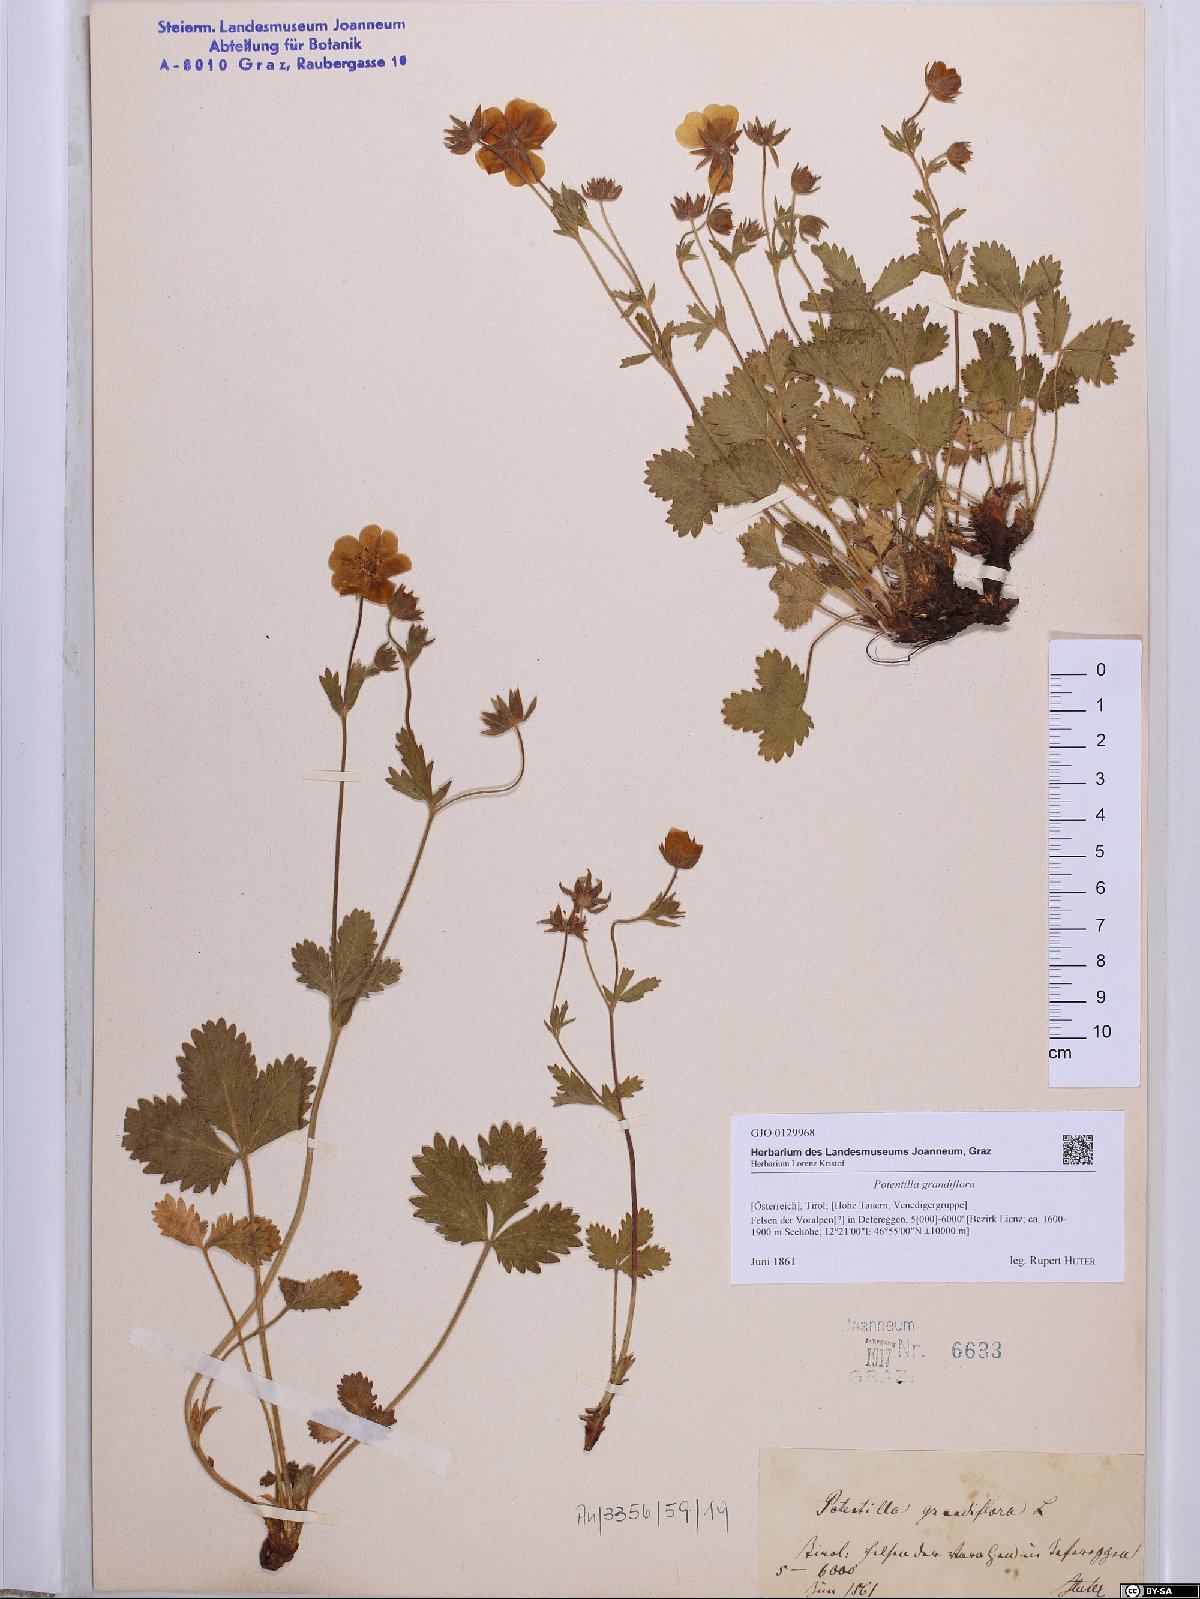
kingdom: Plantae
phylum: Tracheophyta
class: Magnoliopsida
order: Rosales
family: Rosaceae
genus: Potentilla
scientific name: Potentilla grandiflora
